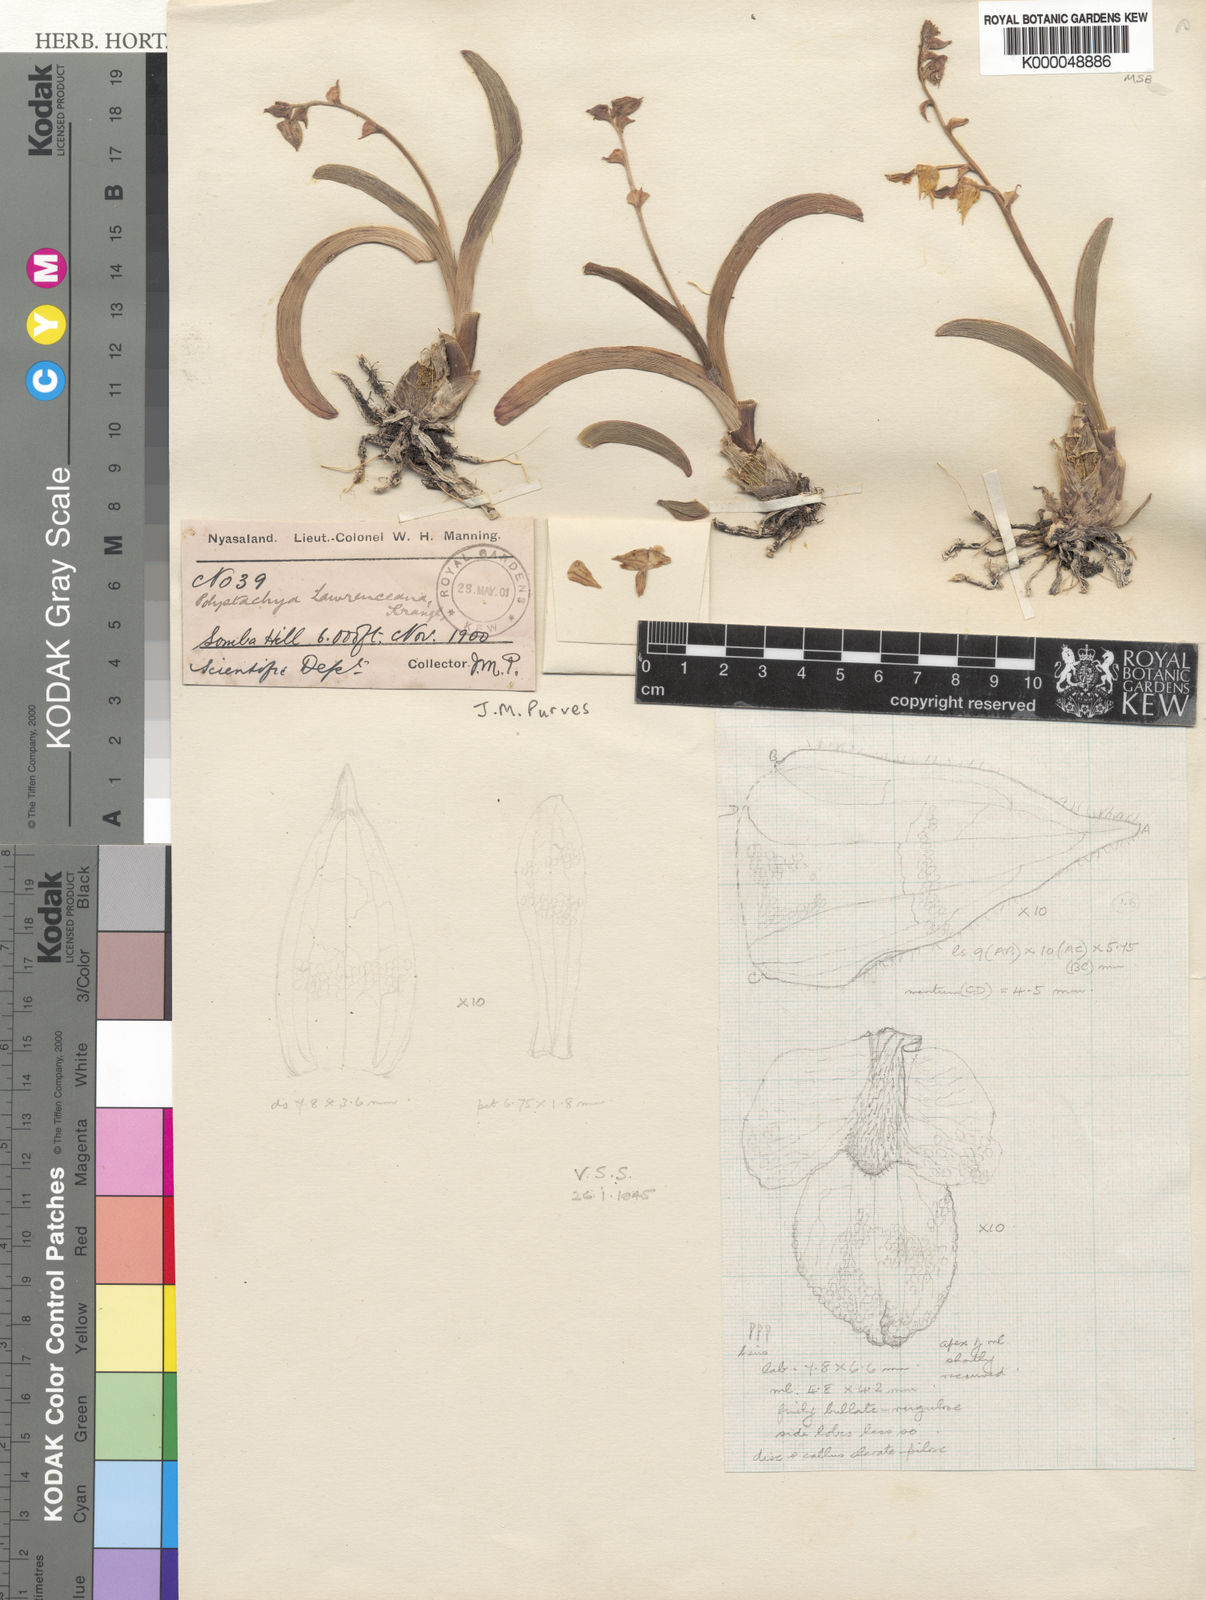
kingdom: Plantae
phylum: Tracheophyta
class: Liliopsida
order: Asparagales
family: Orchidaceae
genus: Polystachya
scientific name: Polystachya lawrenceana
